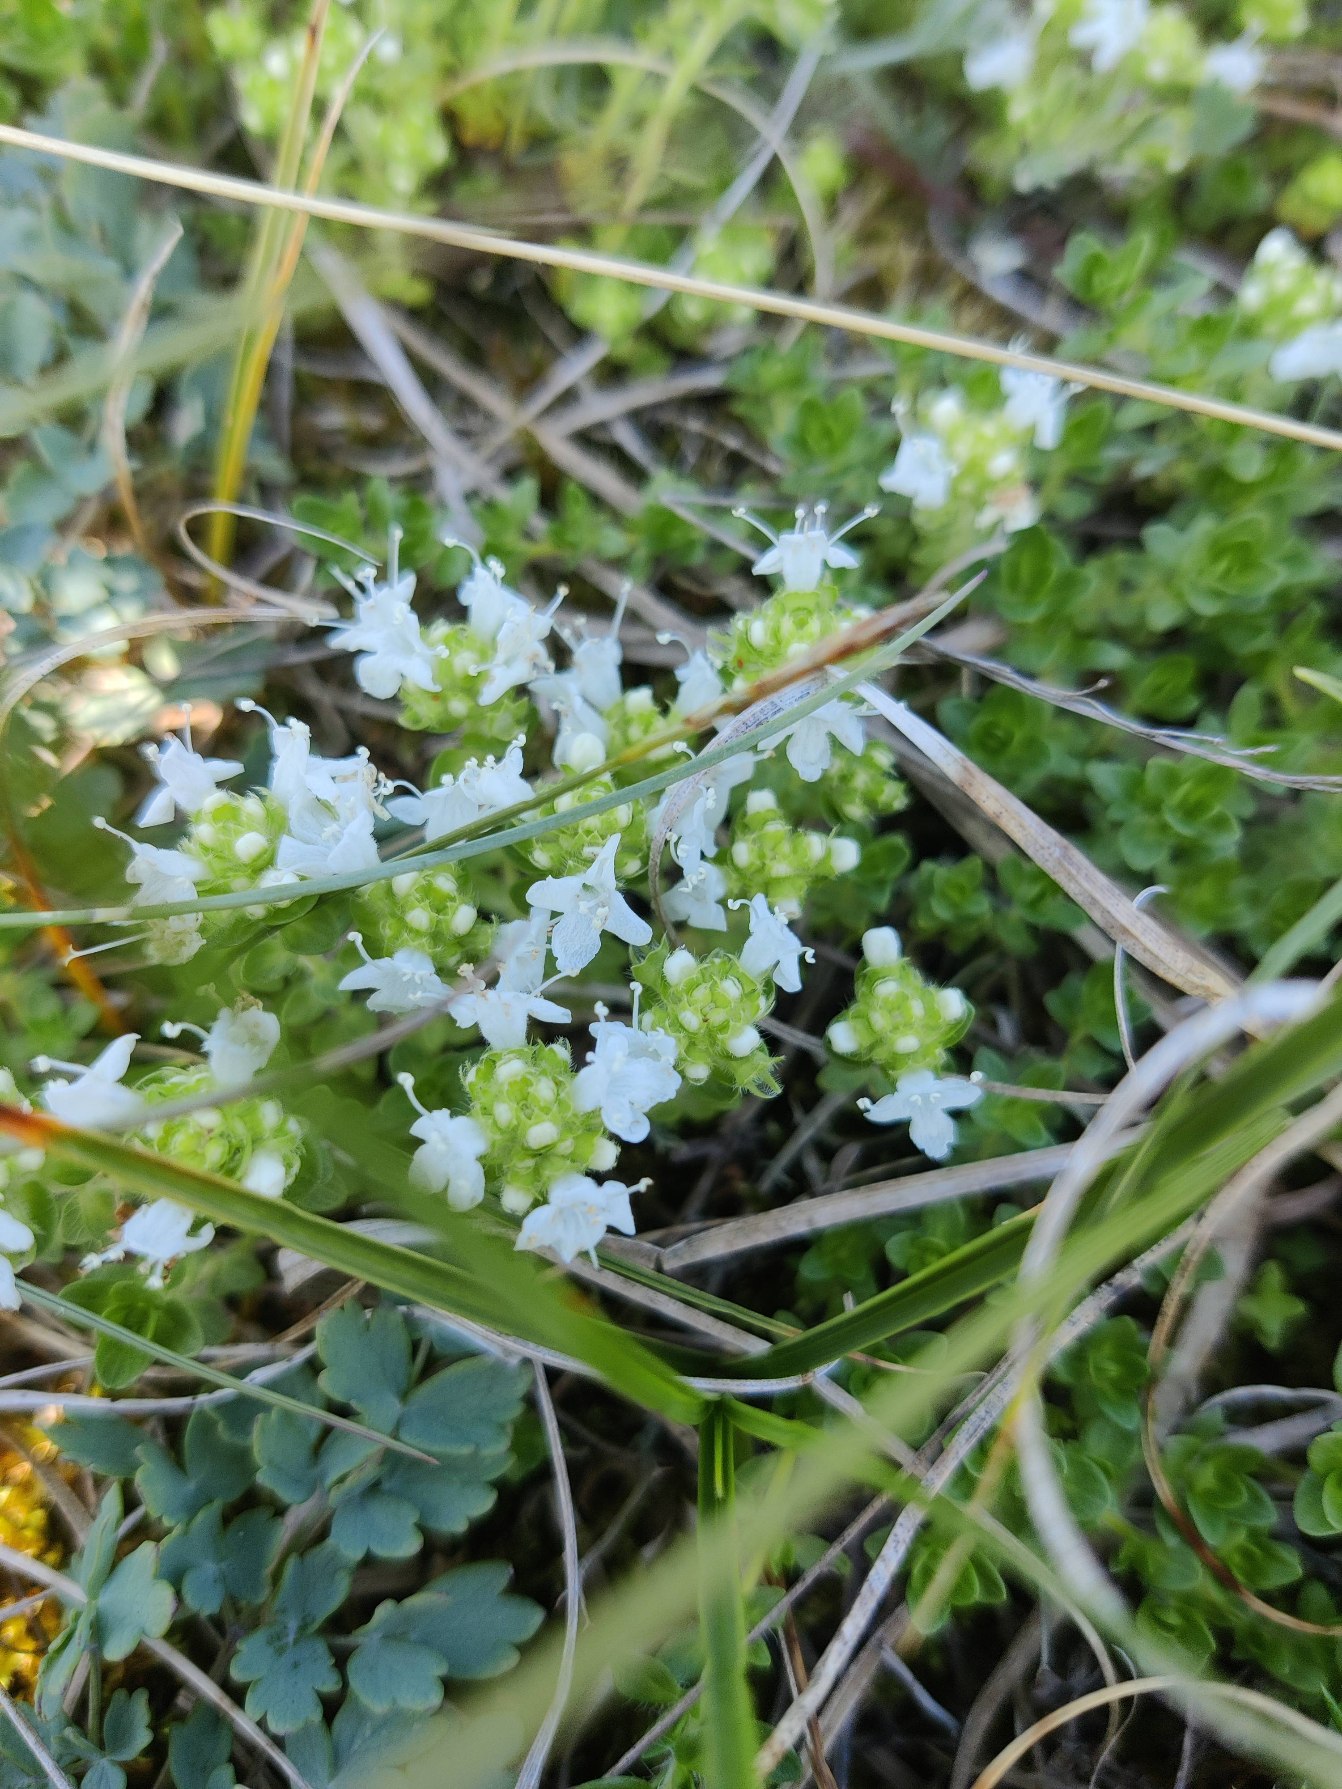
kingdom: Plantae
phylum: Tracheophyta
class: Magnoliopsida
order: Lamiales
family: Lamiaceae
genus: Thymus
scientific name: Thymus pulegioides
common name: Bredbladet timian
